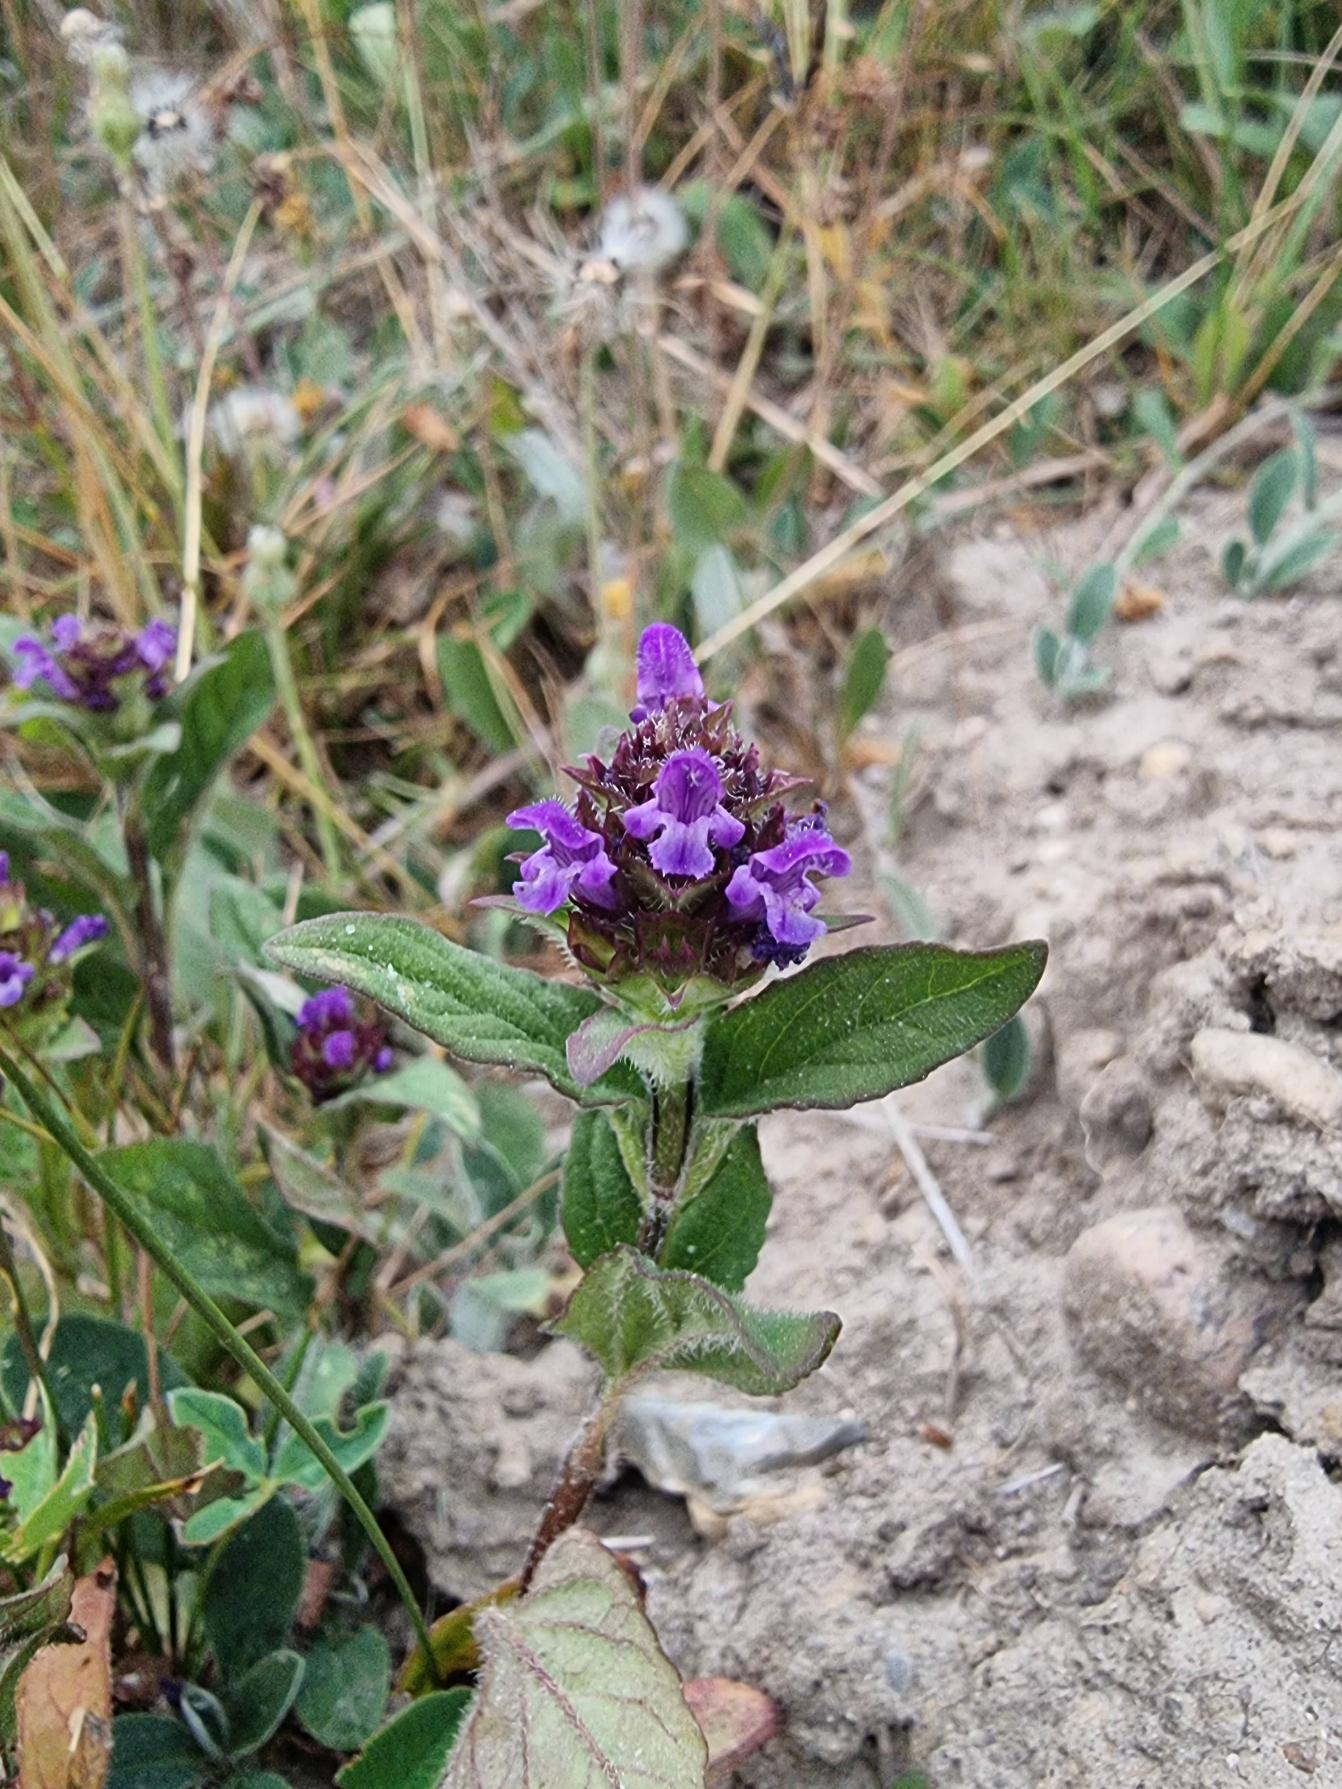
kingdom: Plantae
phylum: Tracheophyta
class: Magnoliopsida
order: Lamiales
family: Lamiaceae
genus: Prunella
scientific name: Prunella vulgaris
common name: Almindelig brunelle
